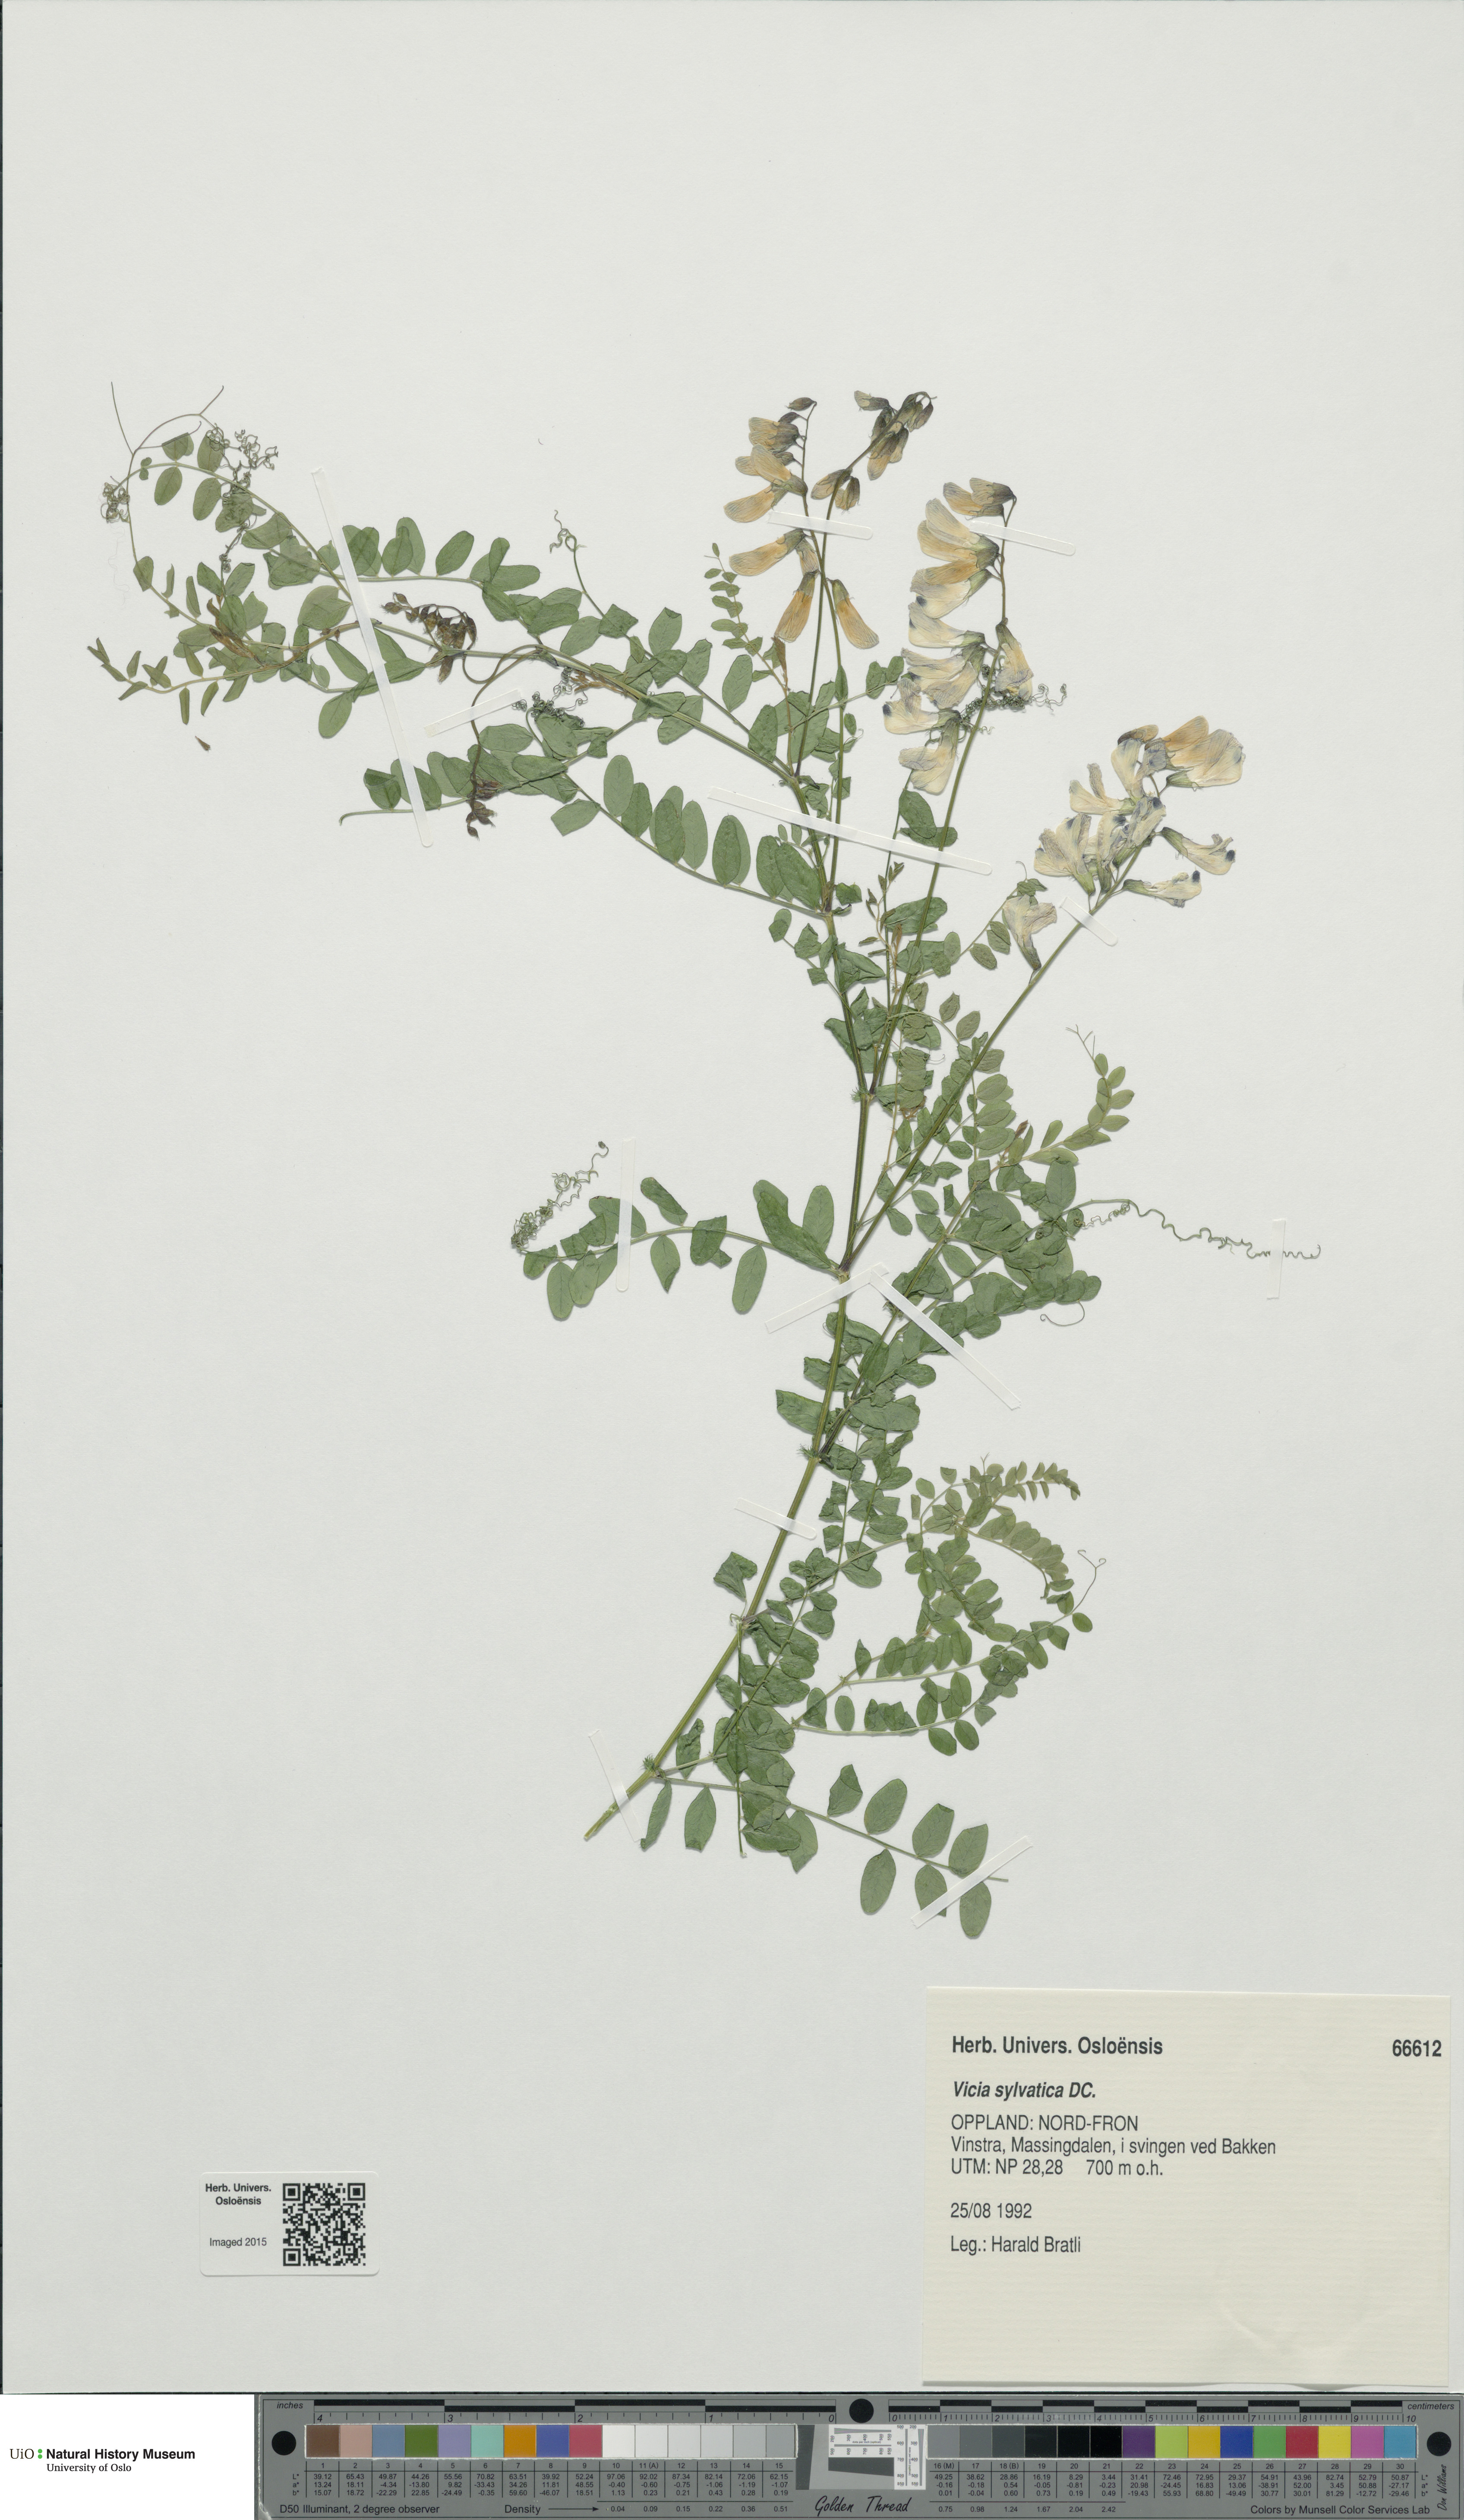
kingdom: Plantae
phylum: Tracheophyta
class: Magnoliopsida
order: Fabales
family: Fabaceae
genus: Vicia
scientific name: Vicia sylvatica
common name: Wood vetch
